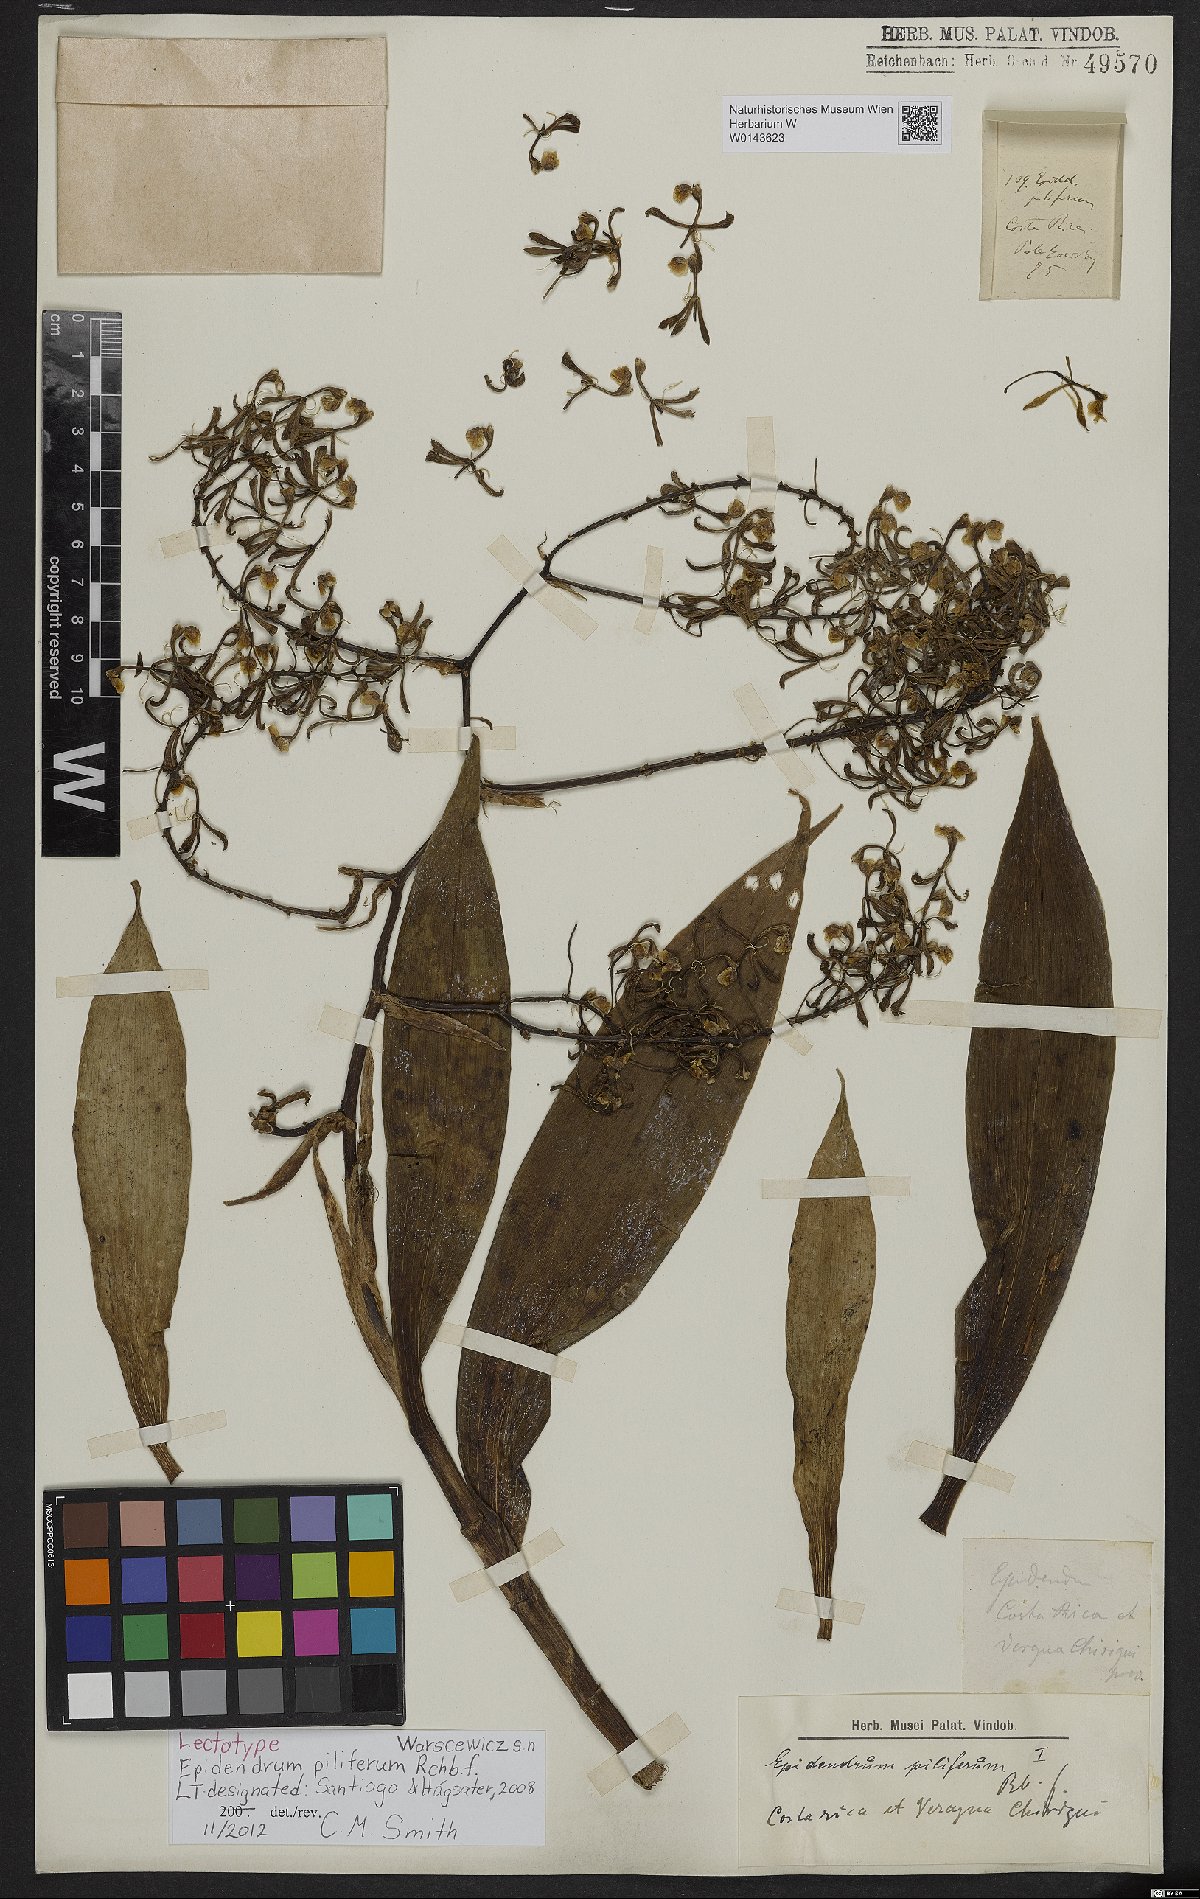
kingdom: Plantae
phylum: Tracheophyta
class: Liliopsida
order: Asparagales
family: Orchidaceae
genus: Epidendrum
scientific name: Epidendrum piliferum
